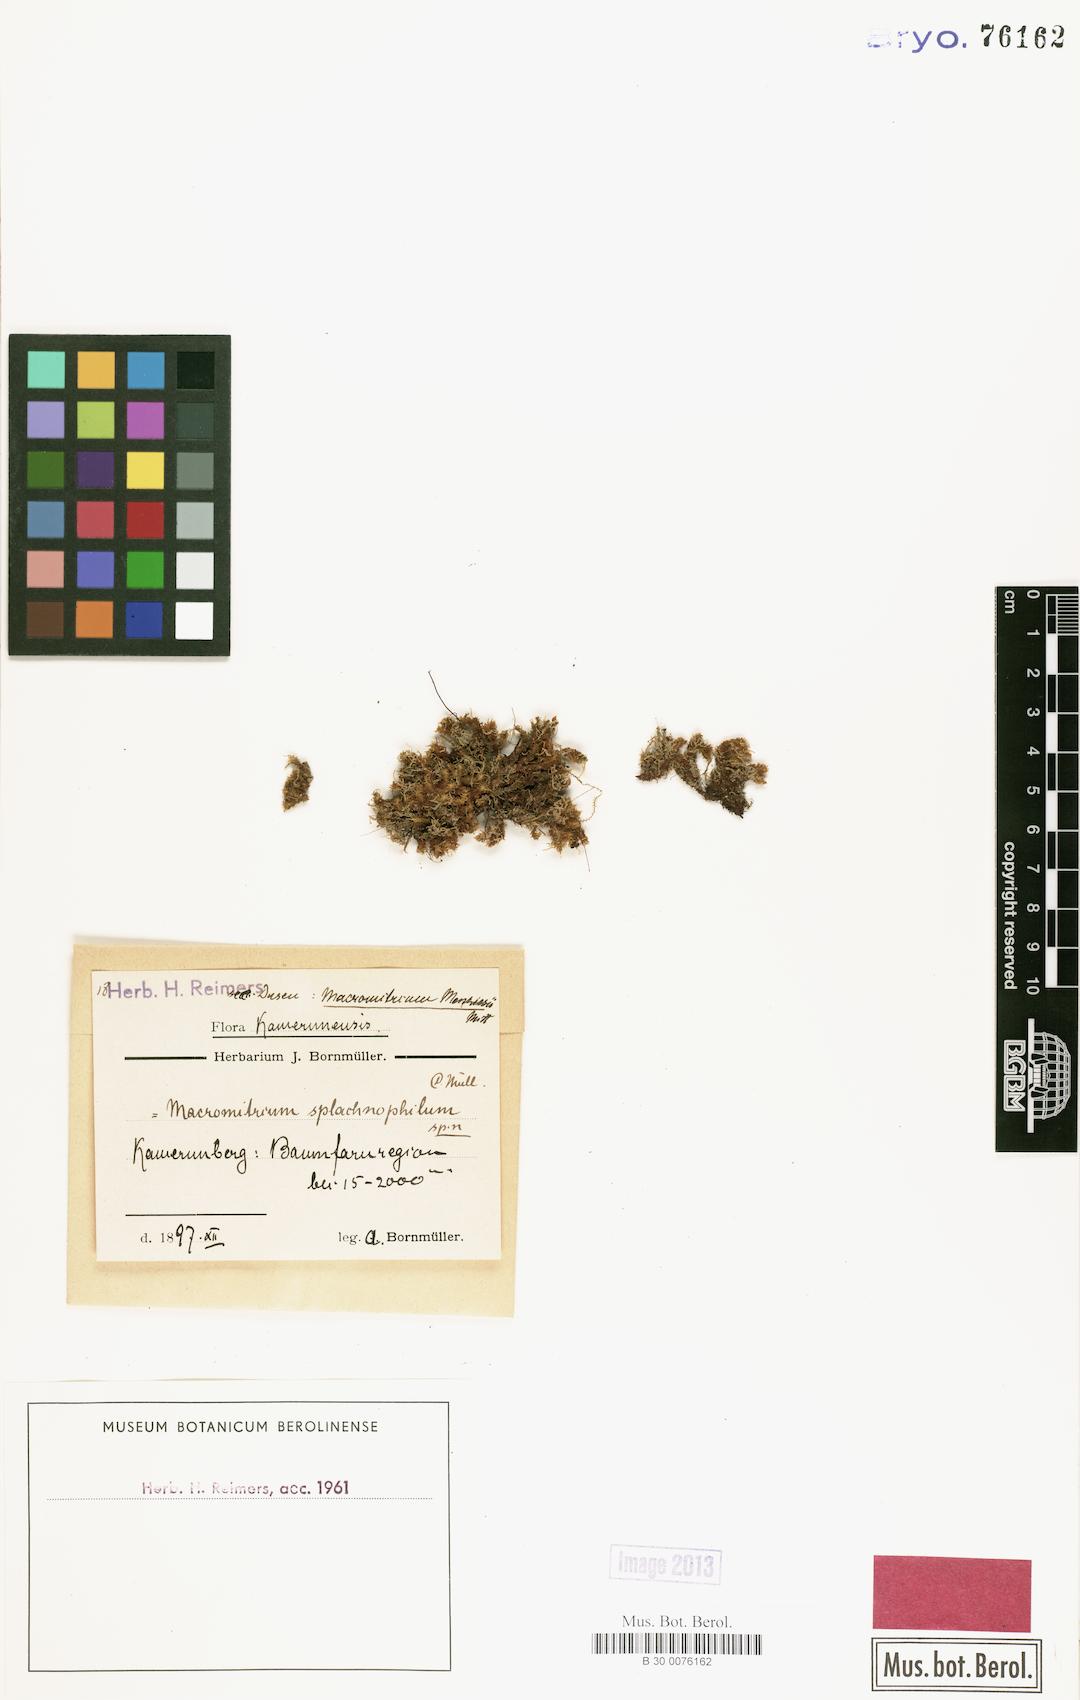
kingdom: Plantae
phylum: Bryophyta
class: Bryopsida
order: Orthotrichales
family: Orthotrichaceae
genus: Macromitrium
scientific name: Macromitrium
